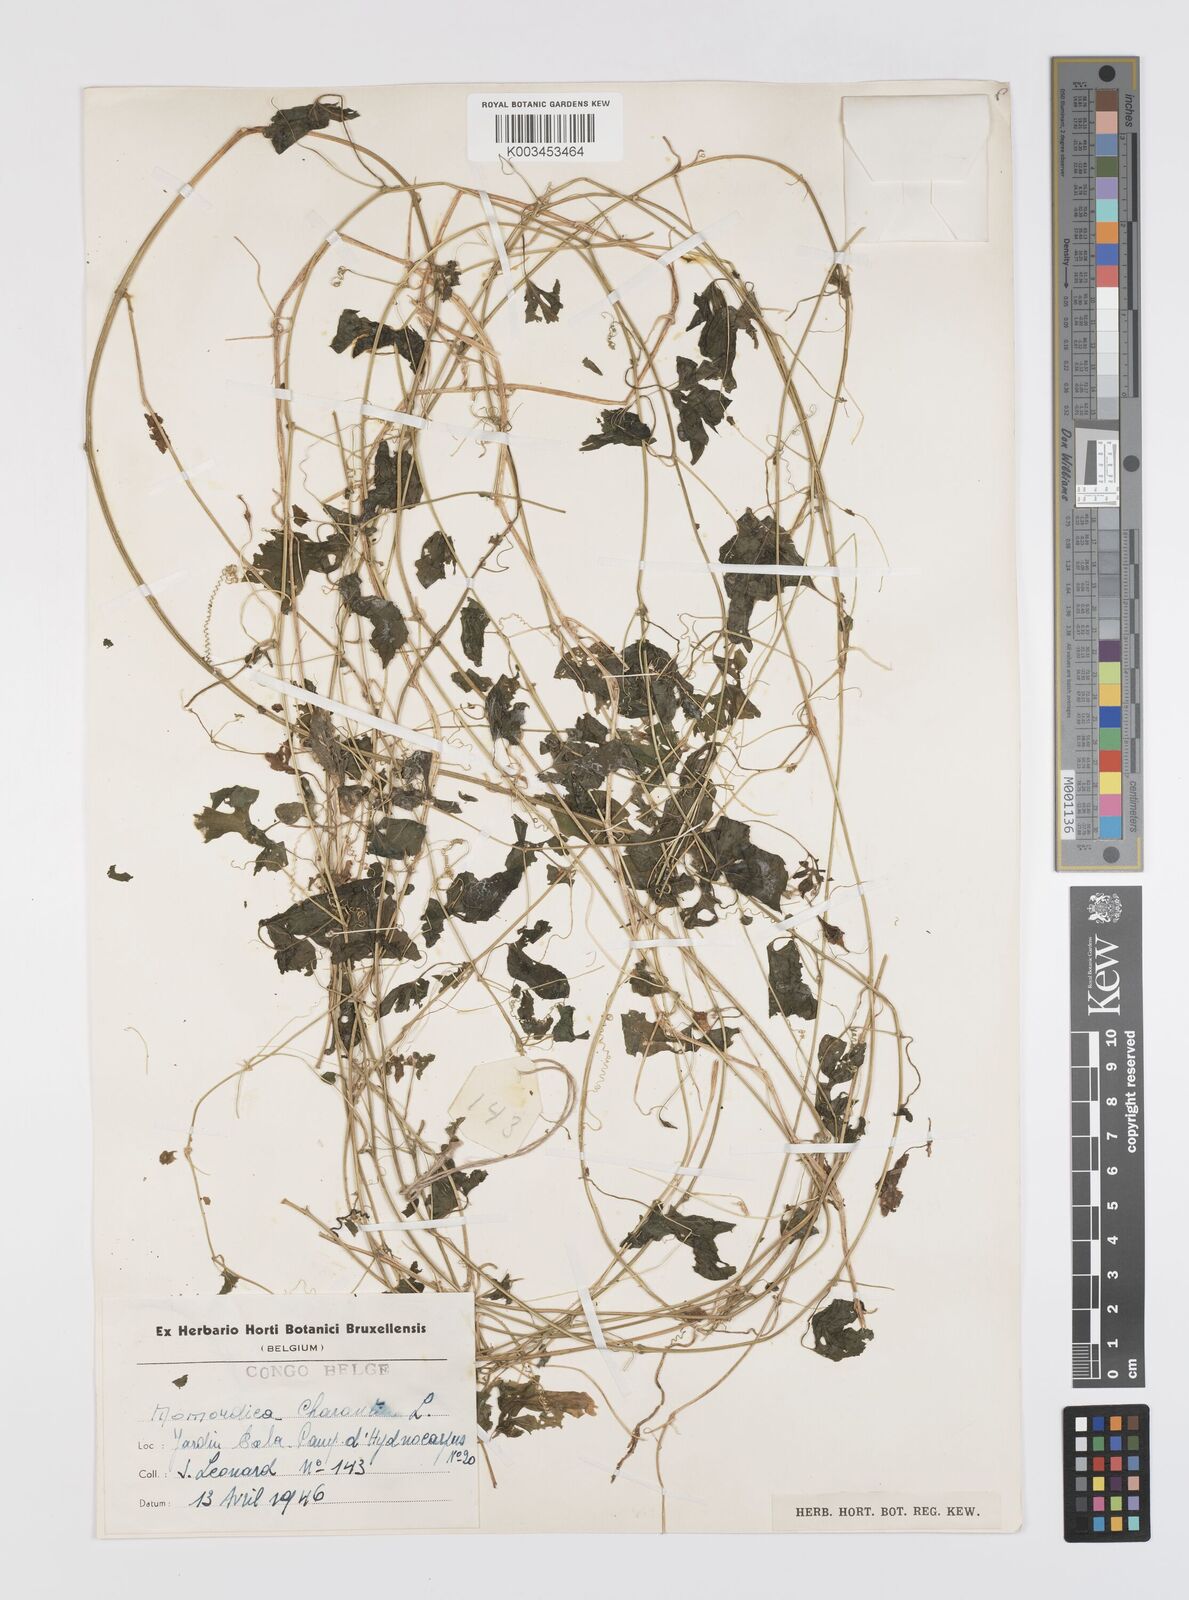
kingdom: Plantae
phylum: Tracheophyta
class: Magnoliopsida
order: Cucurbitales
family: Cucurbitaceae
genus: Momordica
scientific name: Momordica charantia
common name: Balsampear
